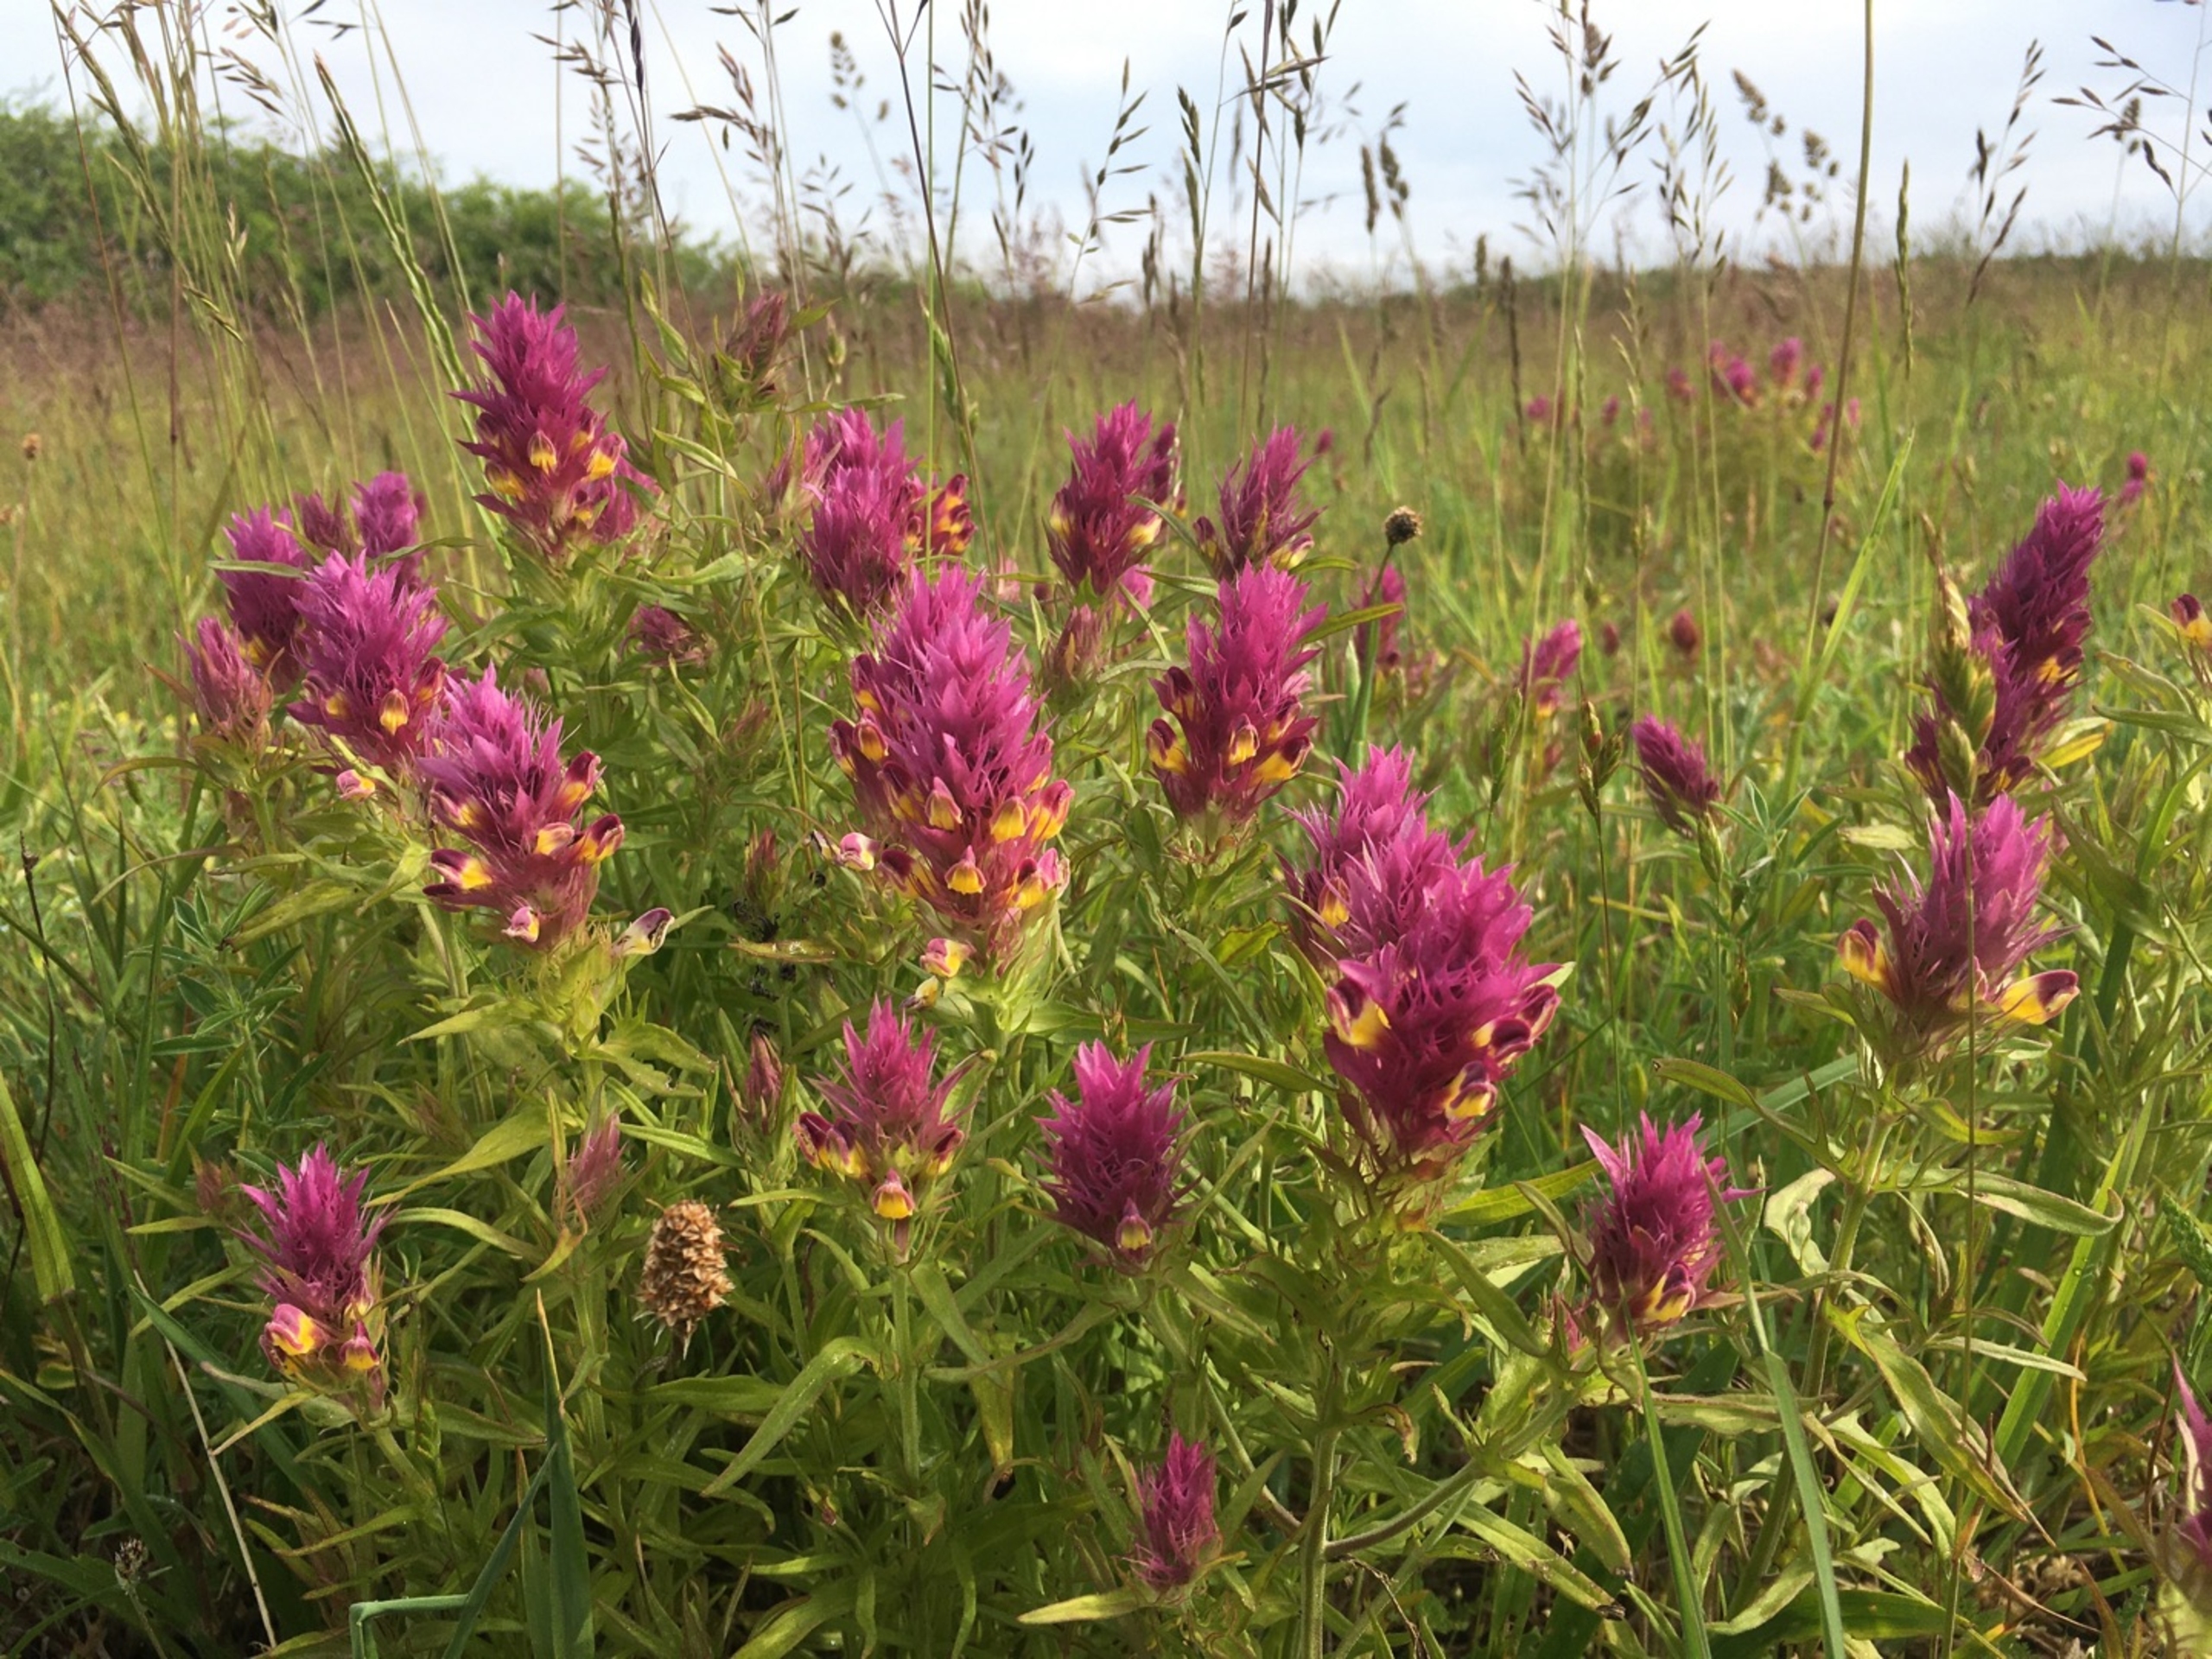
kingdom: Plantae
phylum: Tracheophyta
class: Magnoliopsida
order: Lamiales
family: Orobanchaceae
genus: Melampyrum
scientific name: Melampyrum arvense
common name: Ager-kohvede
